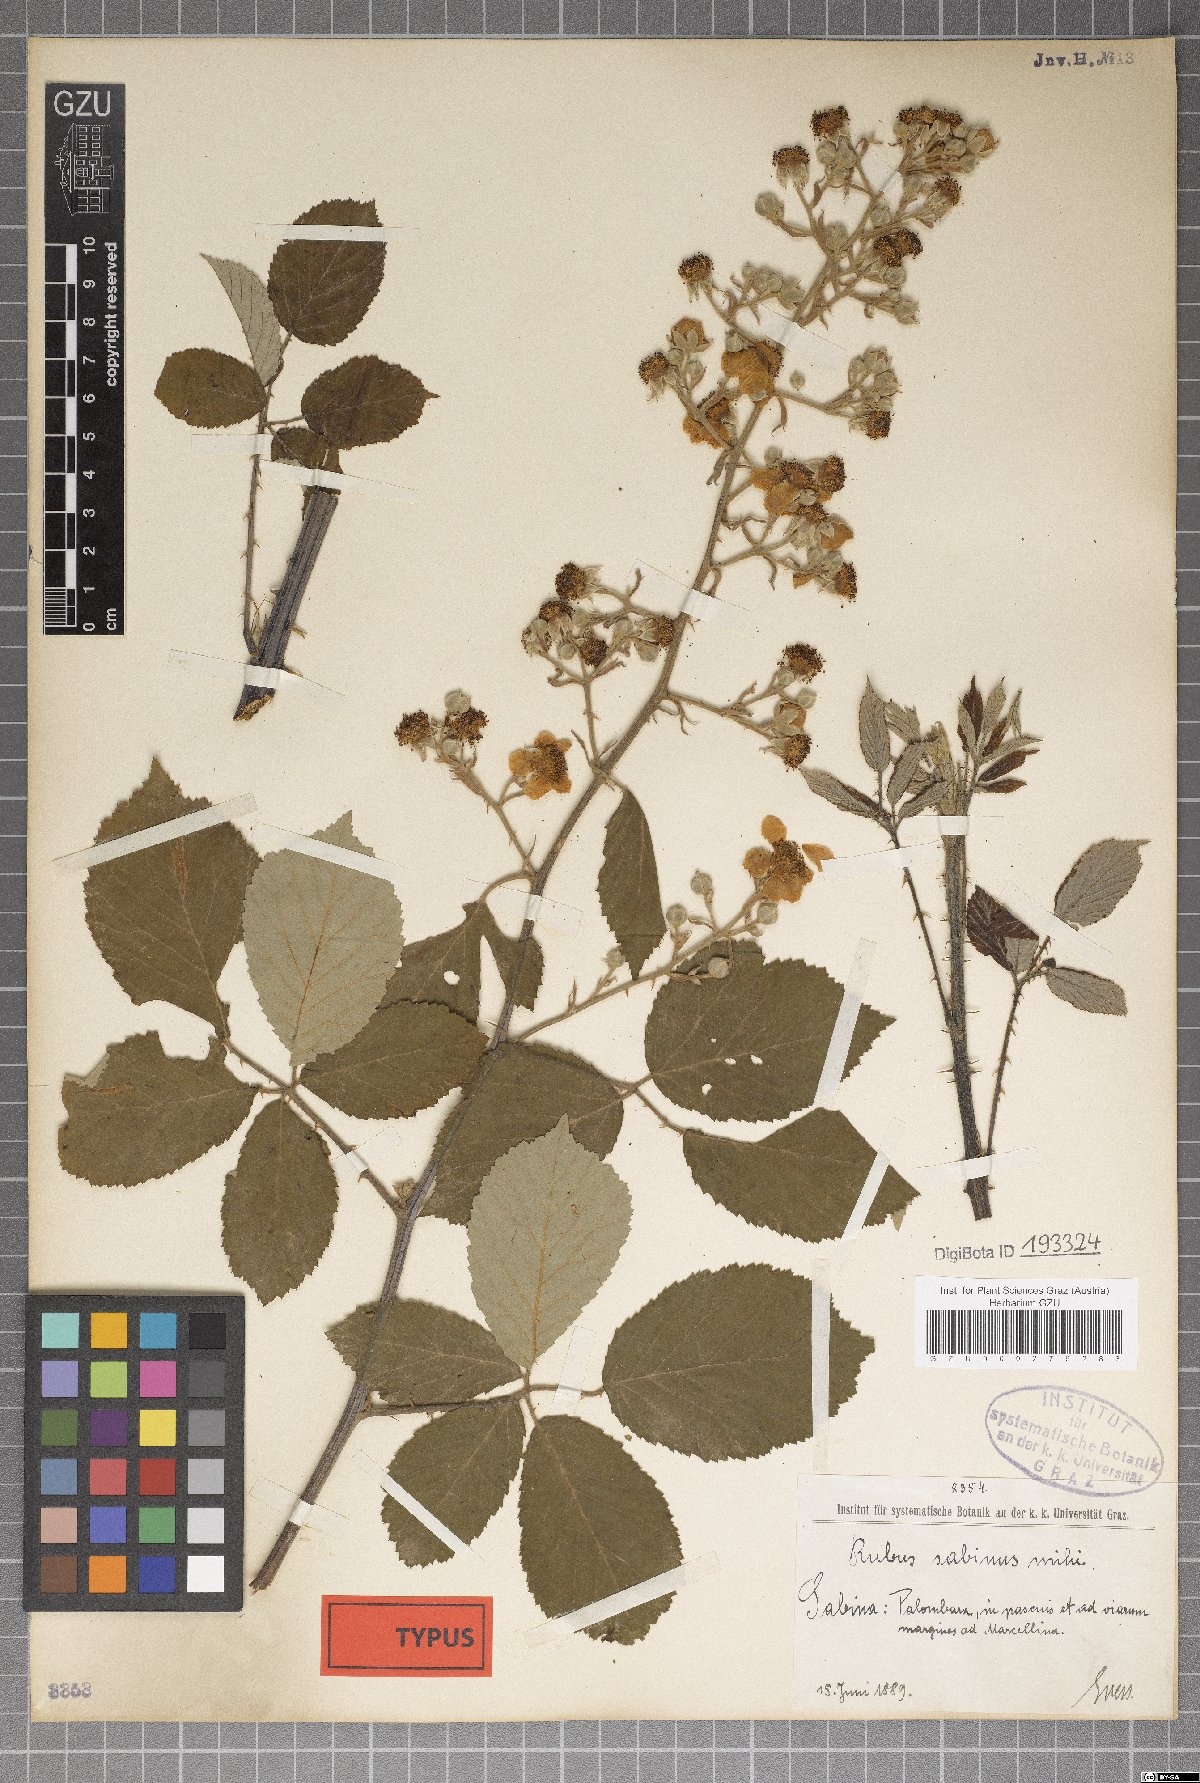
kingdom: Plantae
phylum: Tracheophyta
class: Magnoliopsida
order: Rosales
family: Rosaceae
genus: Rubus
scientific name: Rubus sabinus
